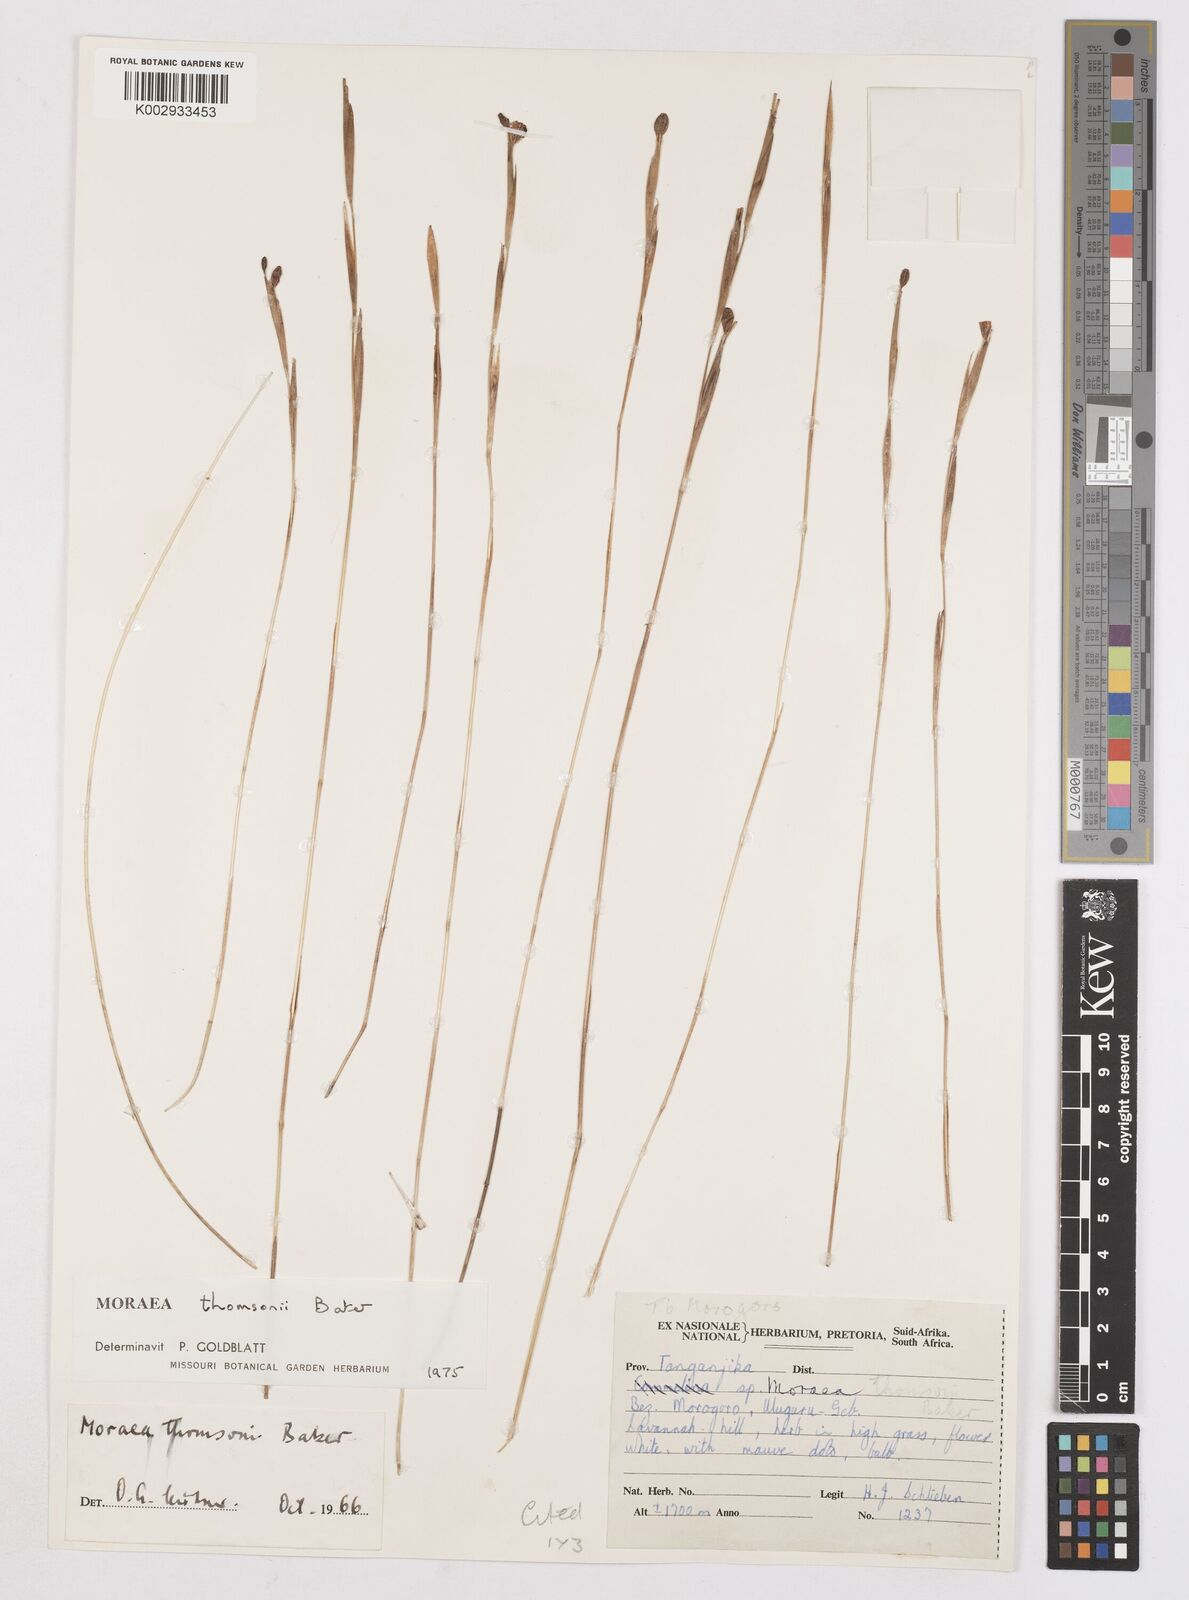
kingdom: Plantae
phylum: Tracheophyta
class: Liliopsida
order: Asparagales
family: Iridaceae
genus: Moraea
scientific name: Moraea stricta
